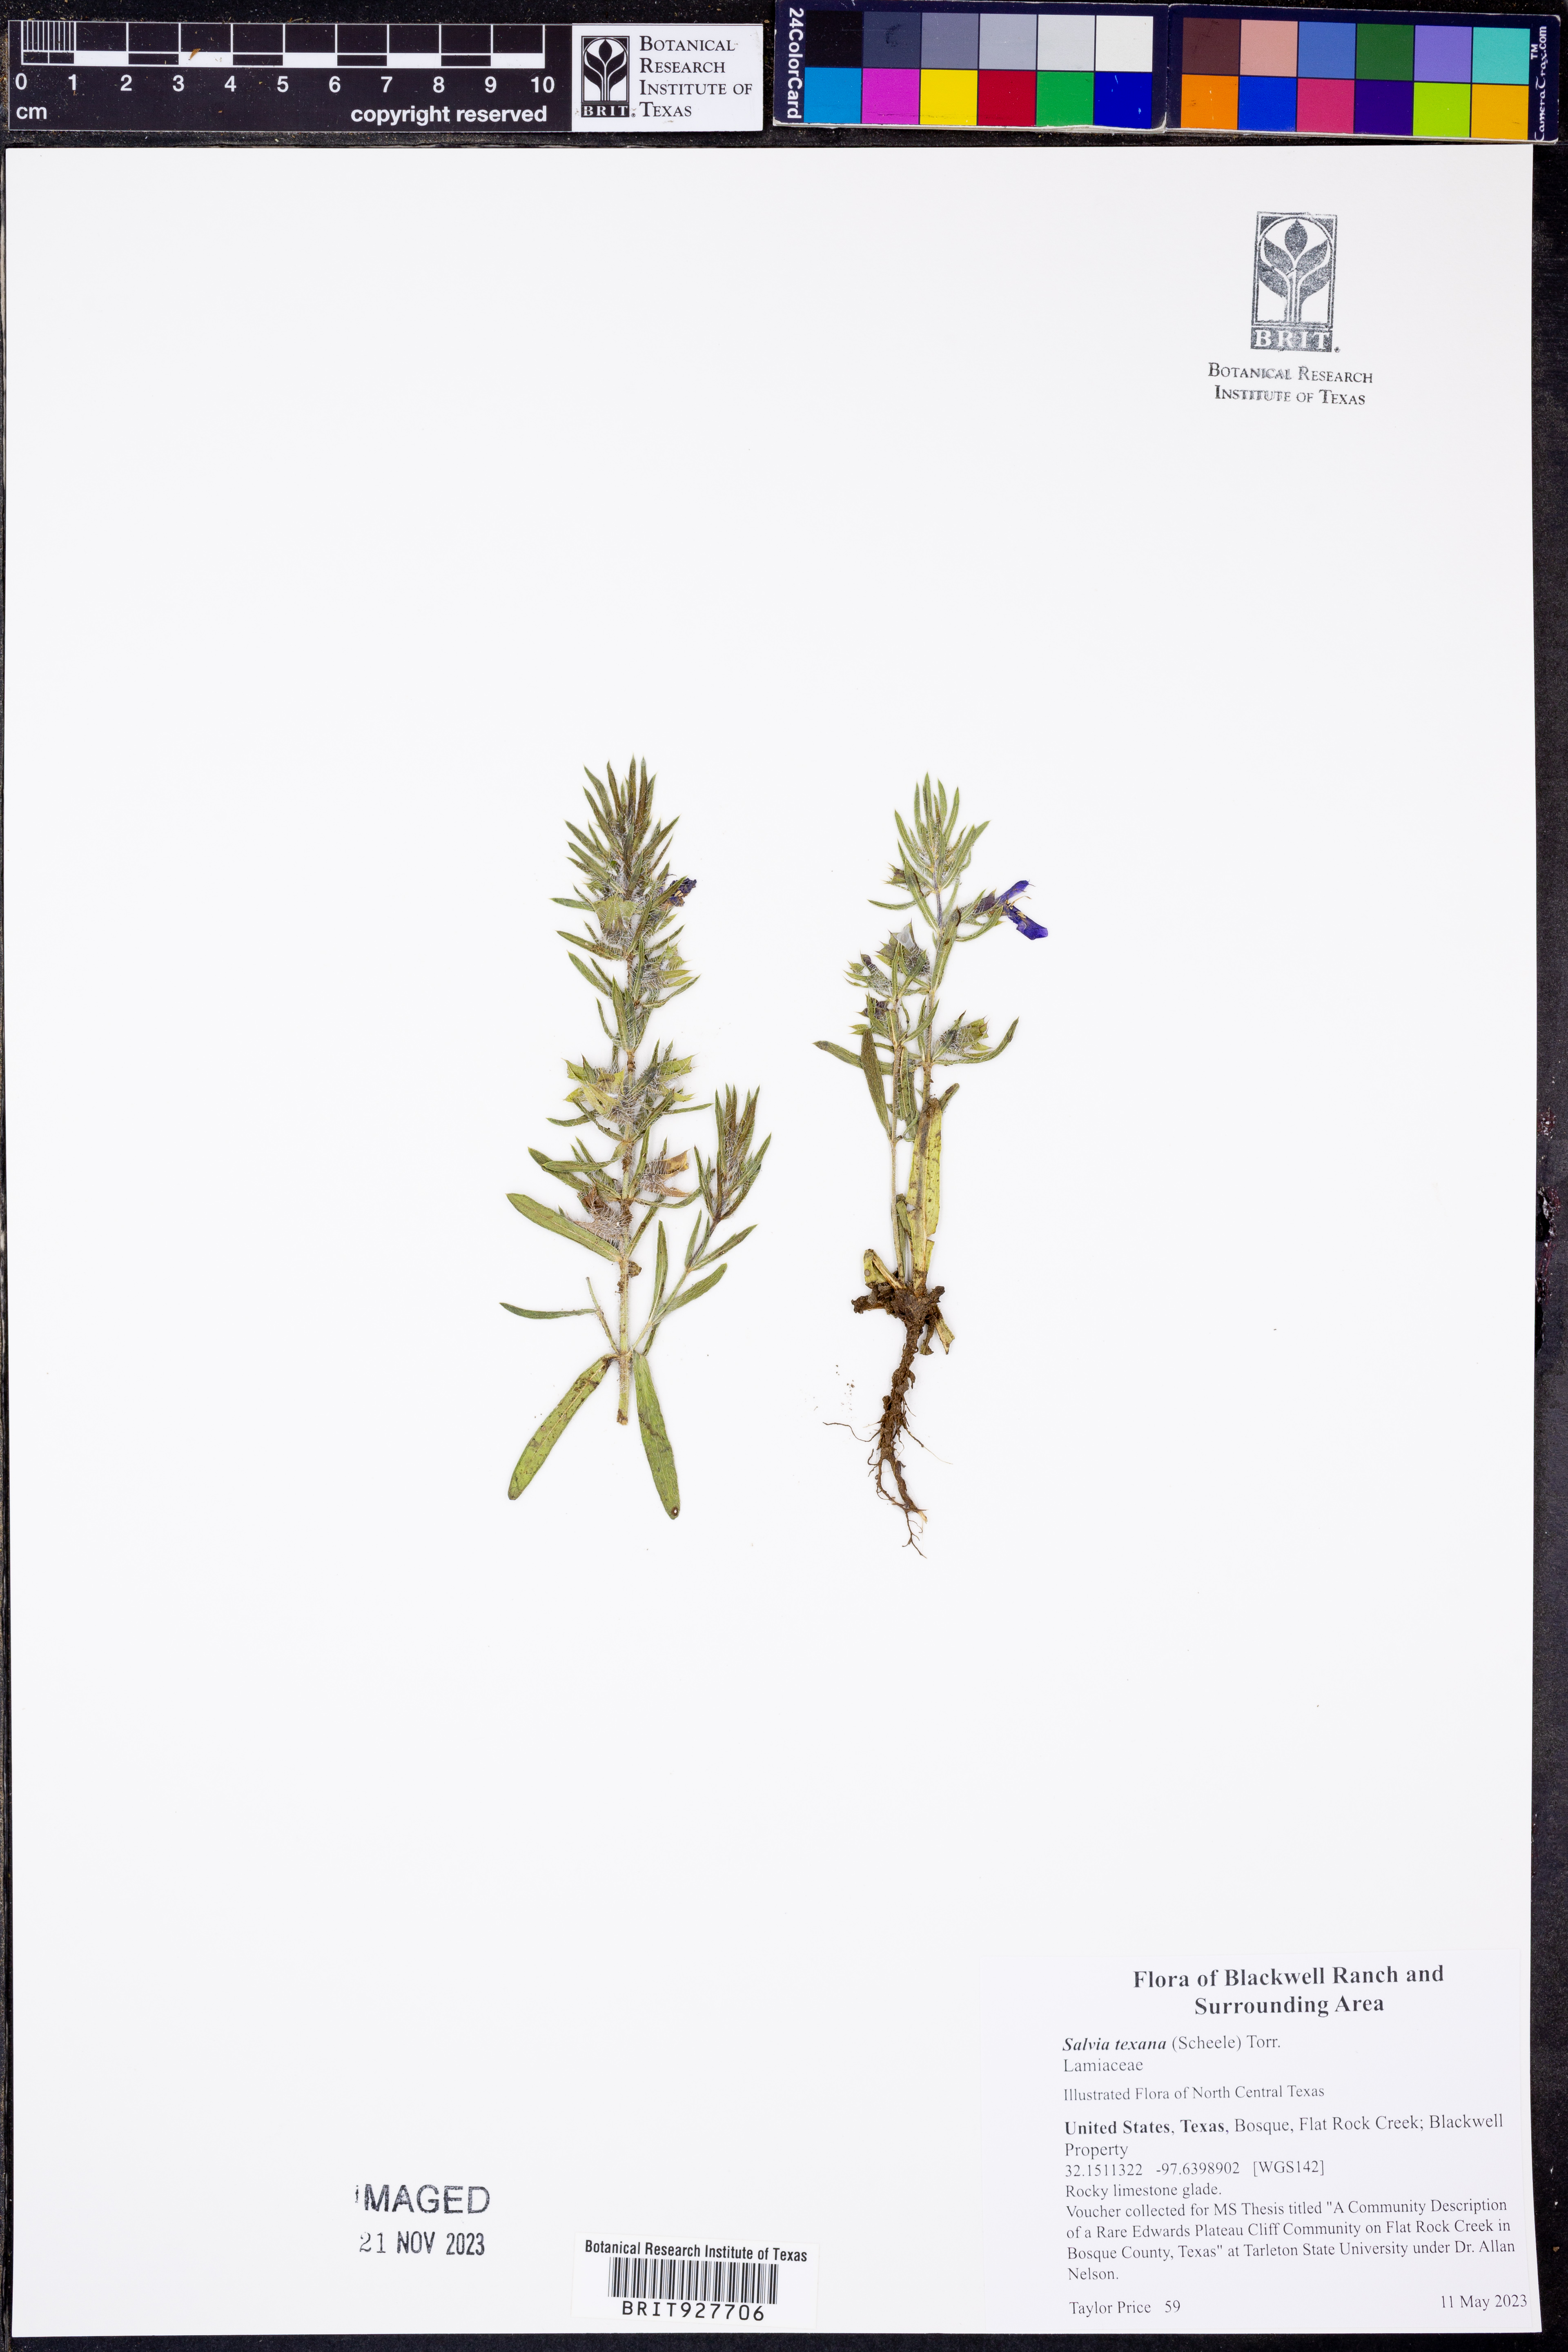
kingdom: Plantae
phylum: Tracheophyta
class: Magnoliopsida
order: Lamiales
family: Lamiaceae
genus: Salvia
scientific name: Salvia texana
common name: Texas sage
